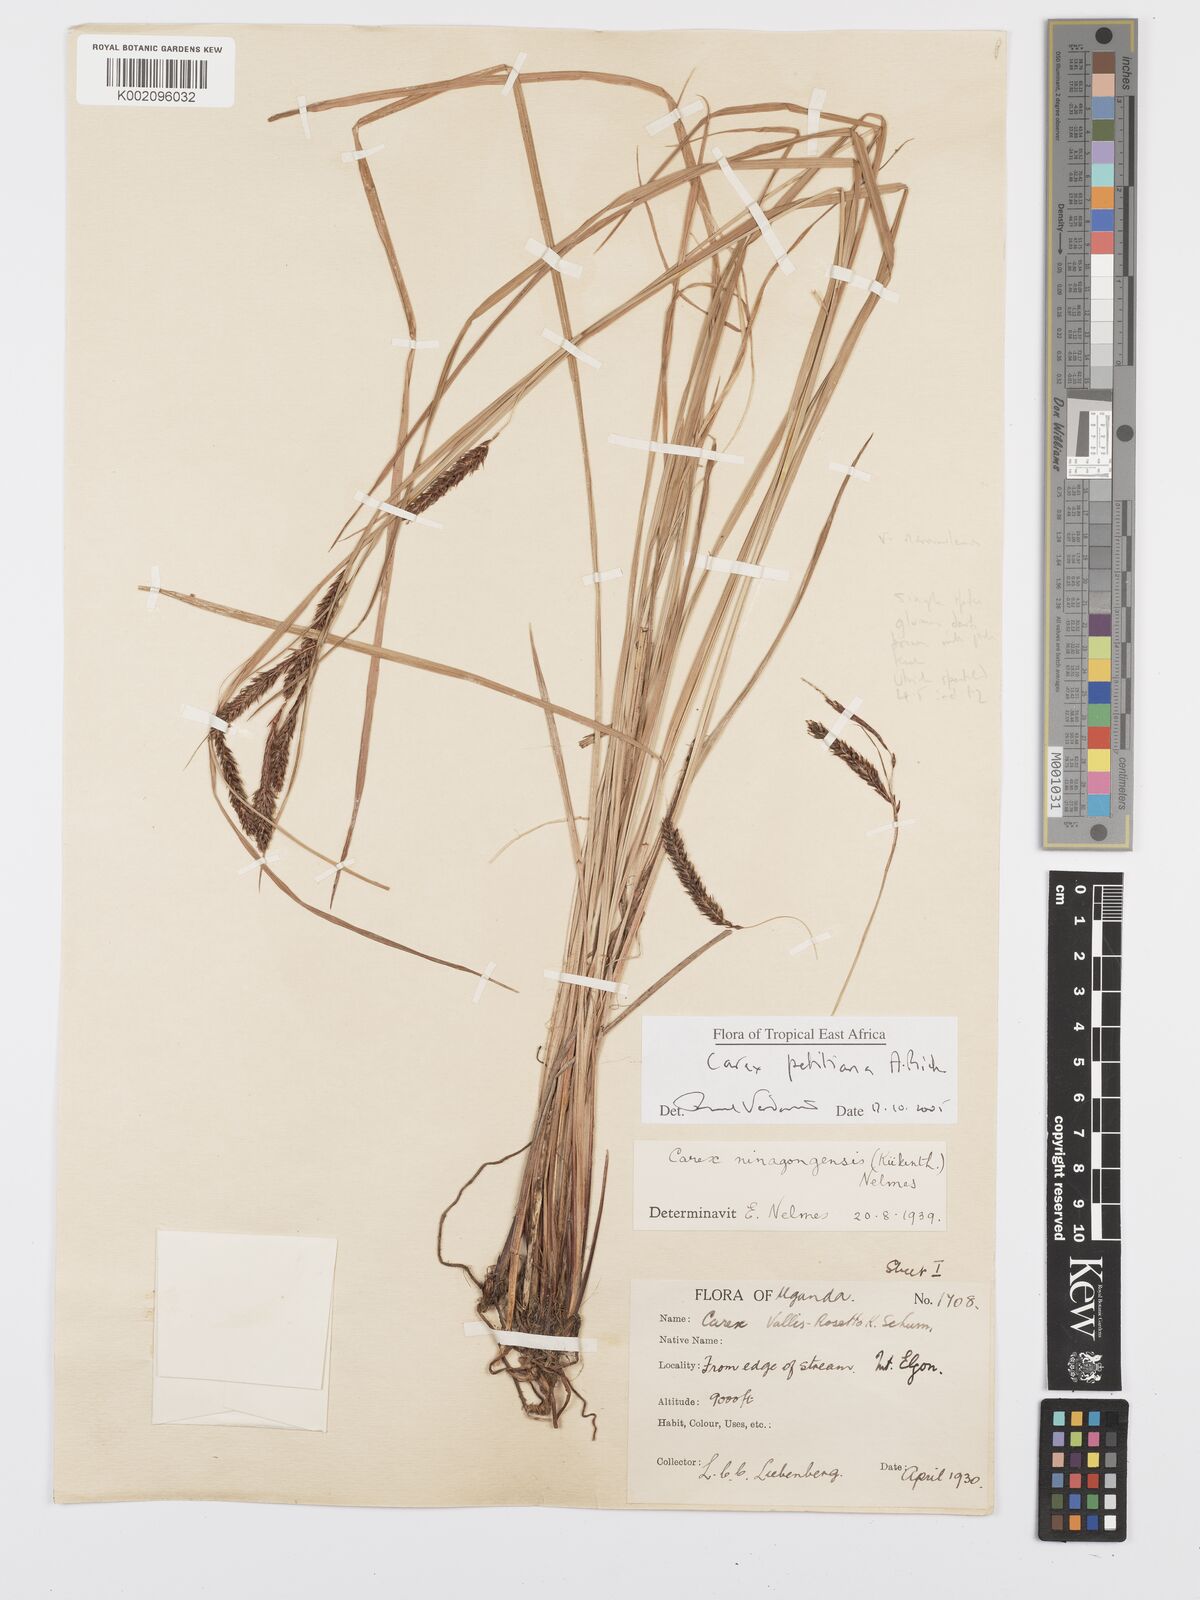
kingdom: Plantae
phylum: Tracheophyta
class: Liliopsida
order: Poales
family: Cyperaceae
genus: Carex
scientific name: Carex mannii
